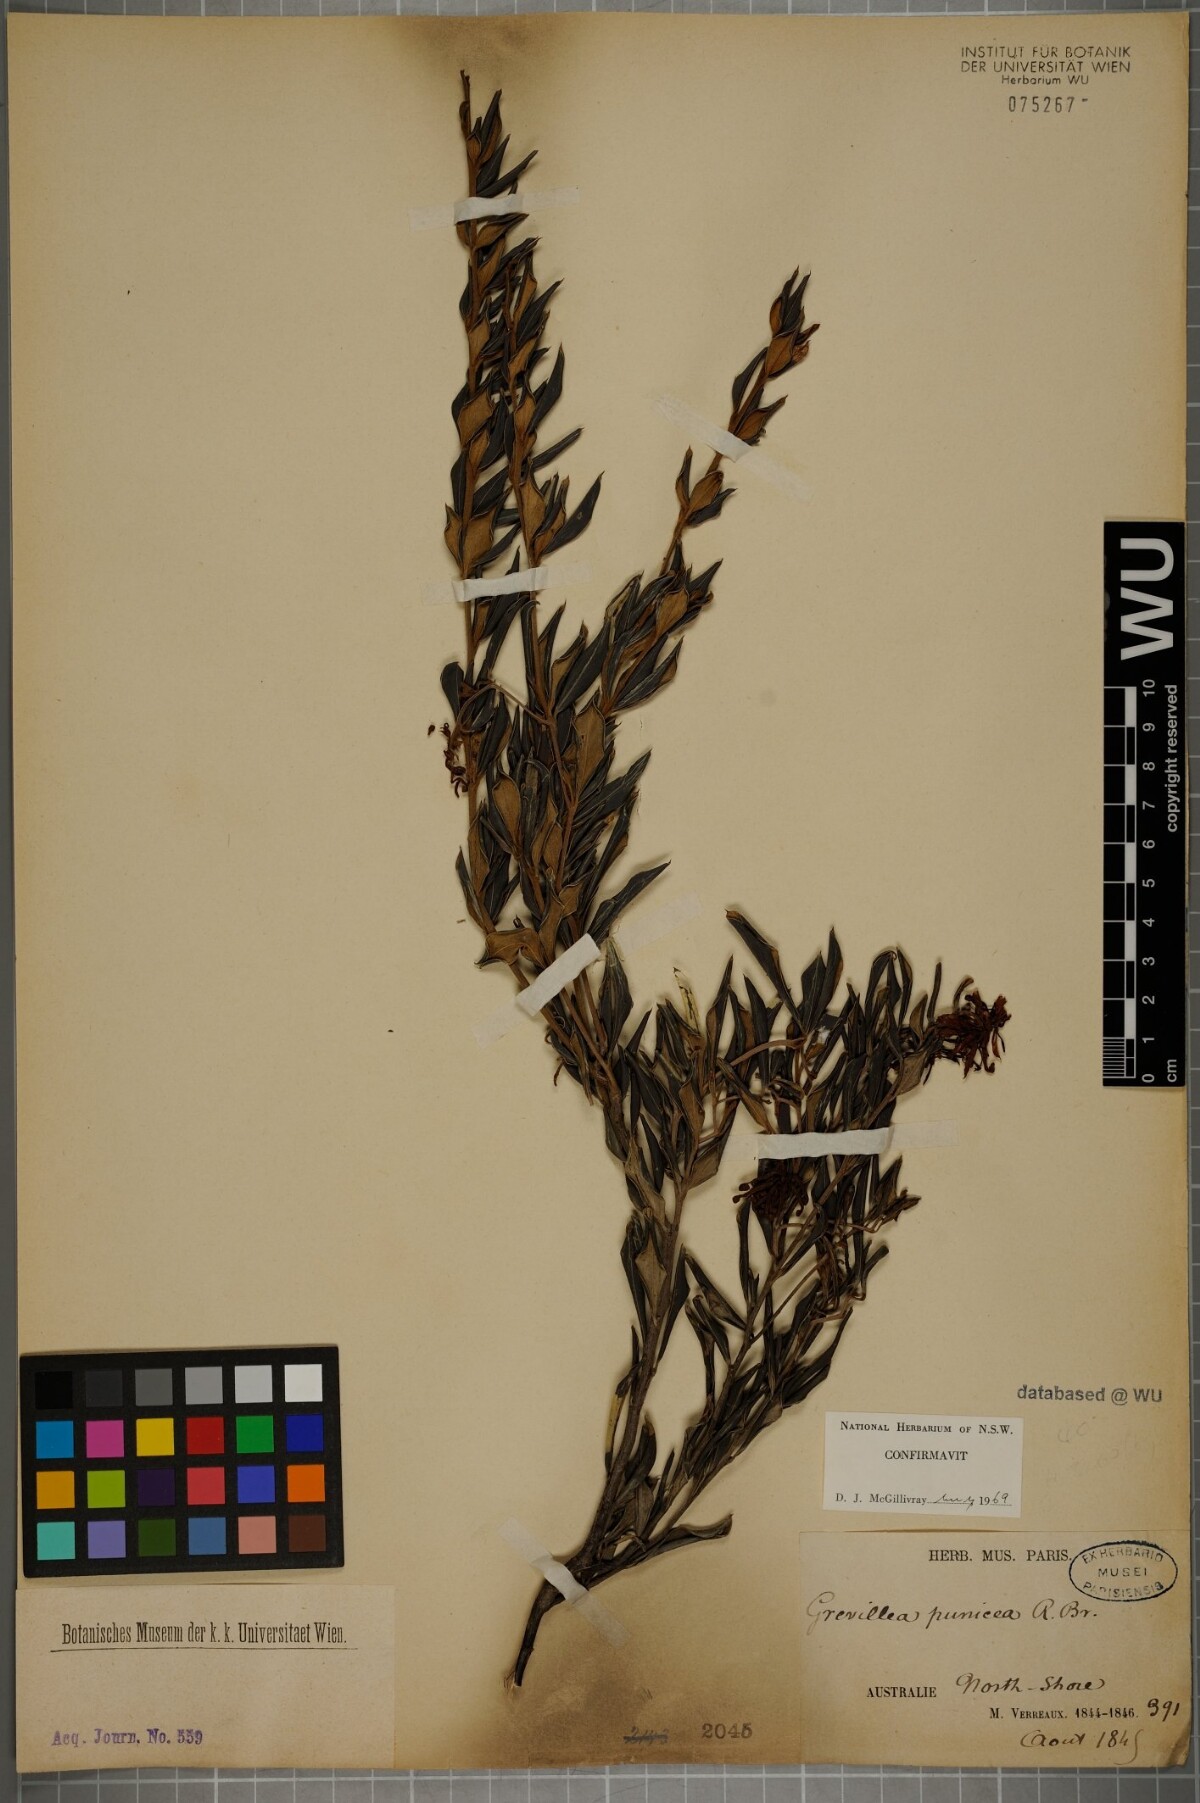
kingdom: Plantae
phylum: Tracheophyta
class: Magnoliopsida
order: Proteales
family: Proteaceae
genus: Grevillea
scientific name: Grevillea speciosa
